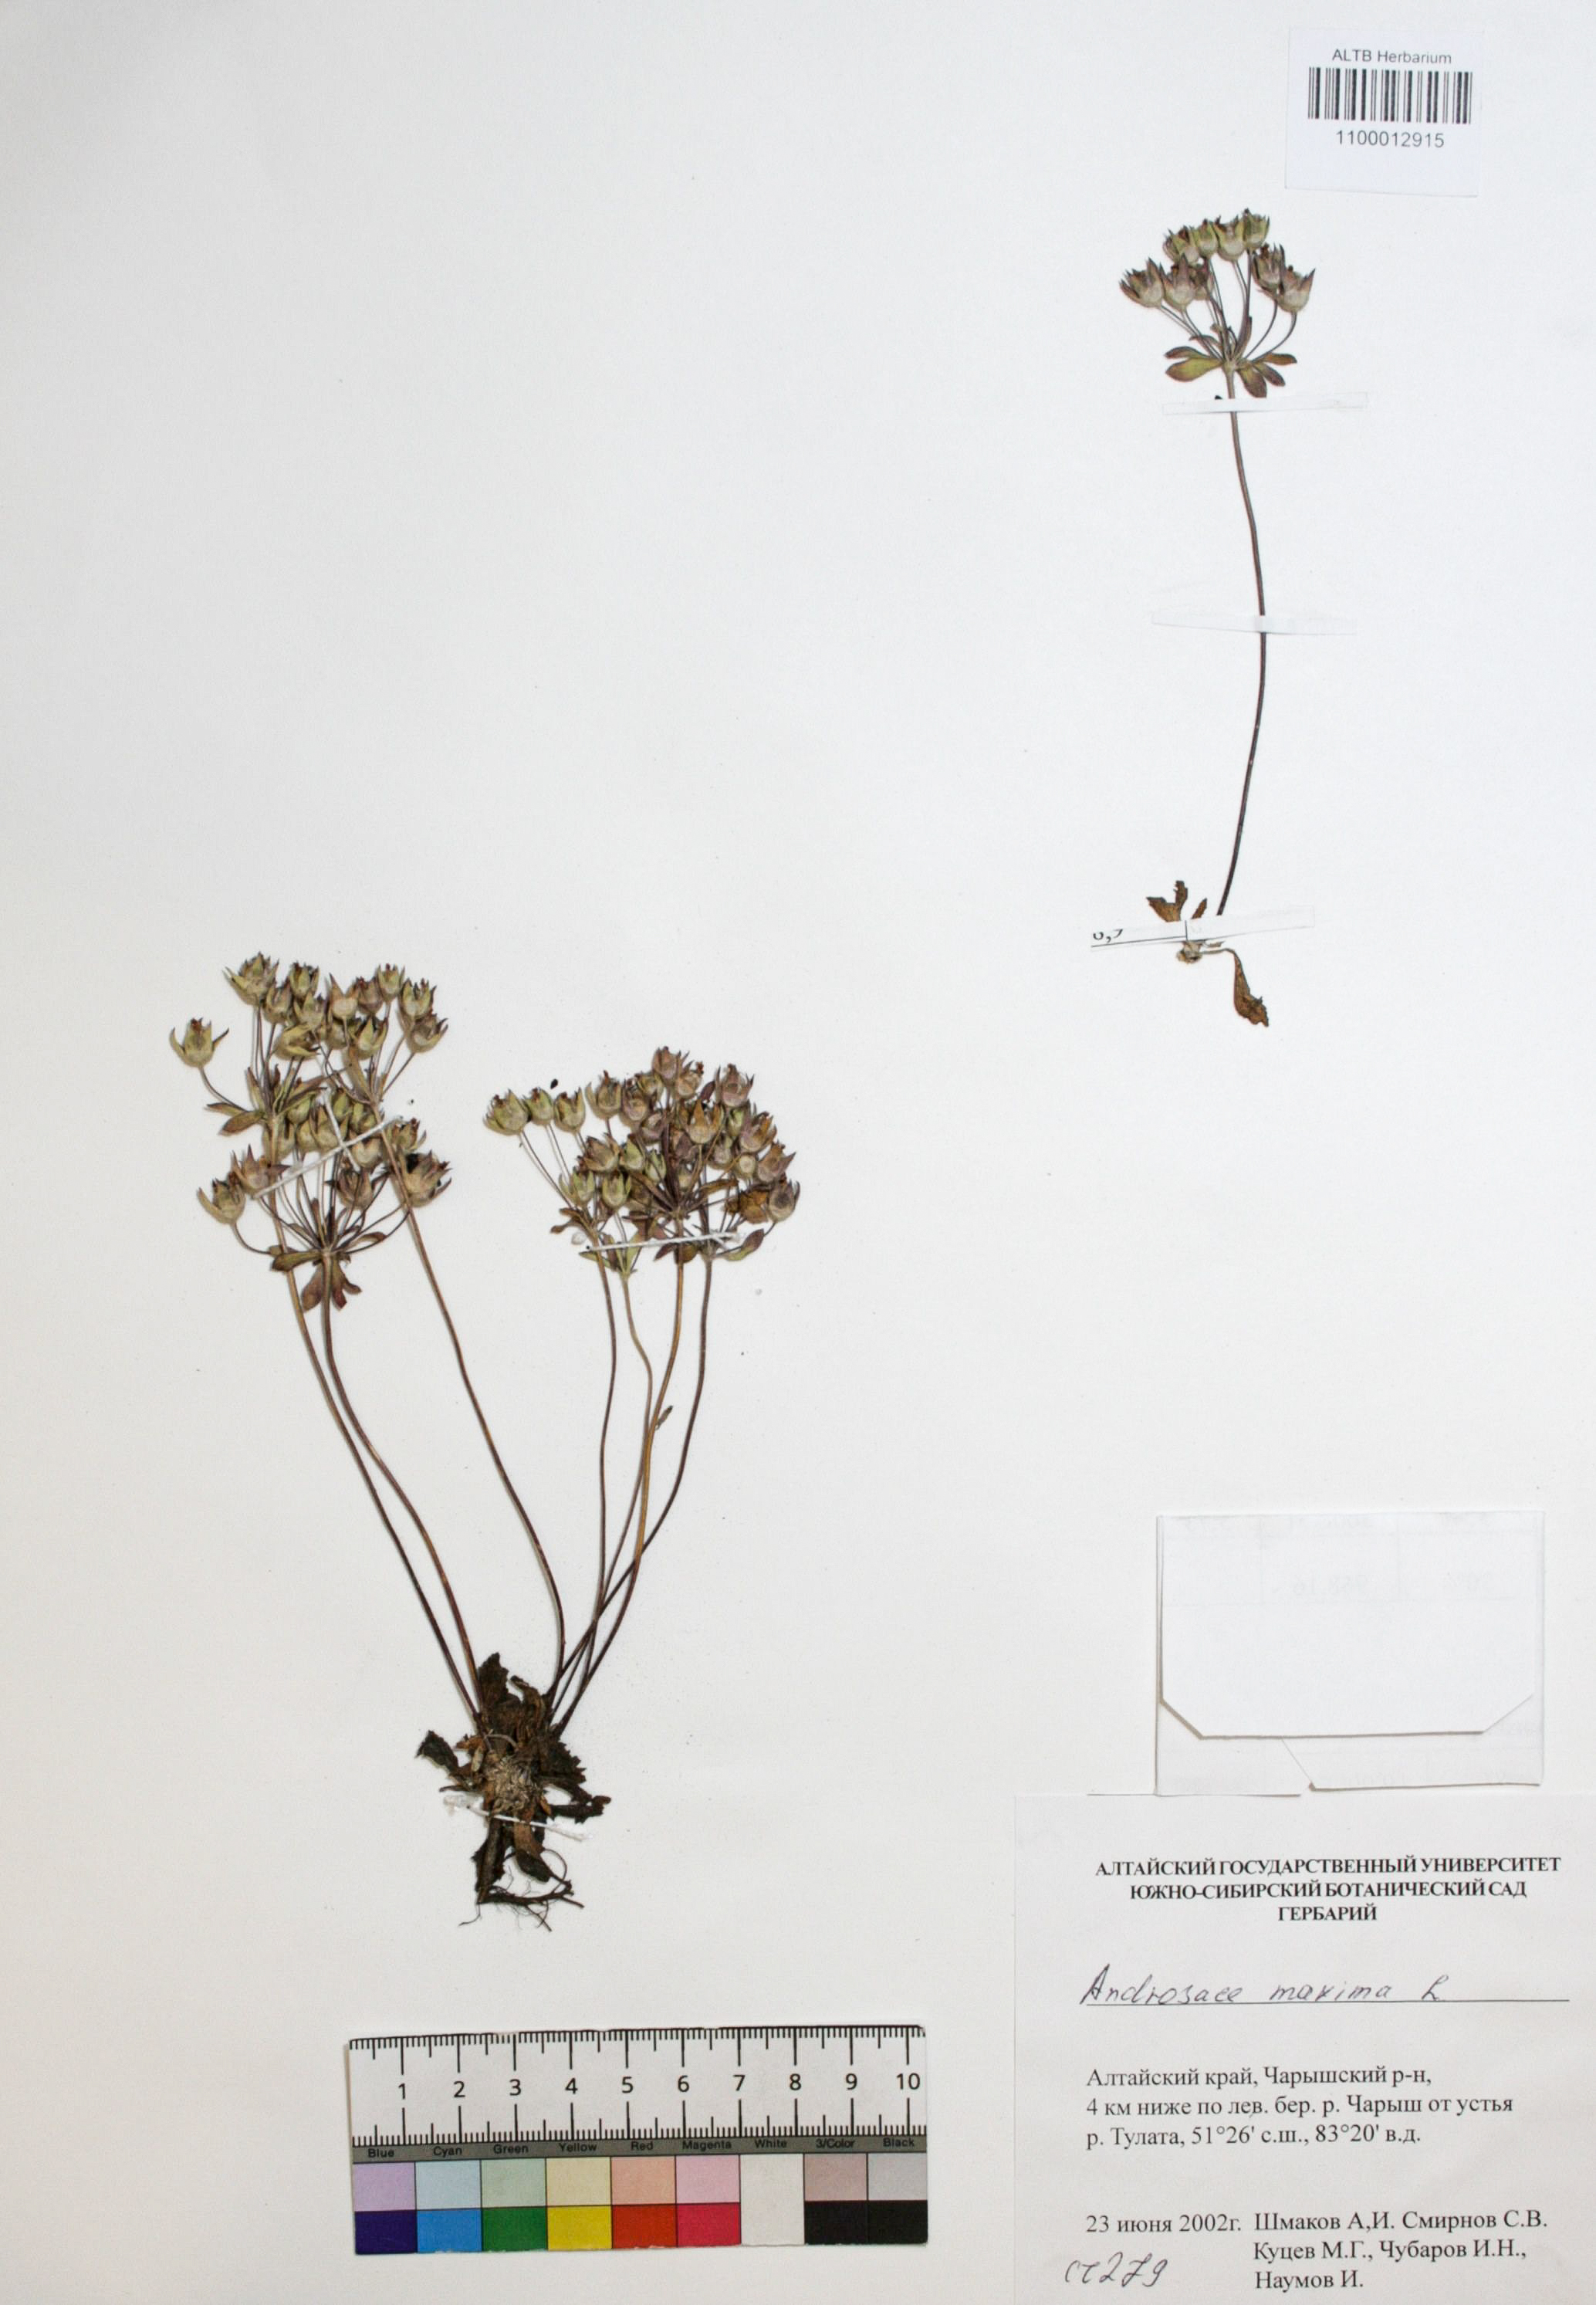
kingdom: Plantae
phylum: Tracheophyta
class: Magnoliopsida
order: Ericales
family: Primulaceae
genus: Androsace
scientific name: Androsace maxima
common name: Annual androsace
